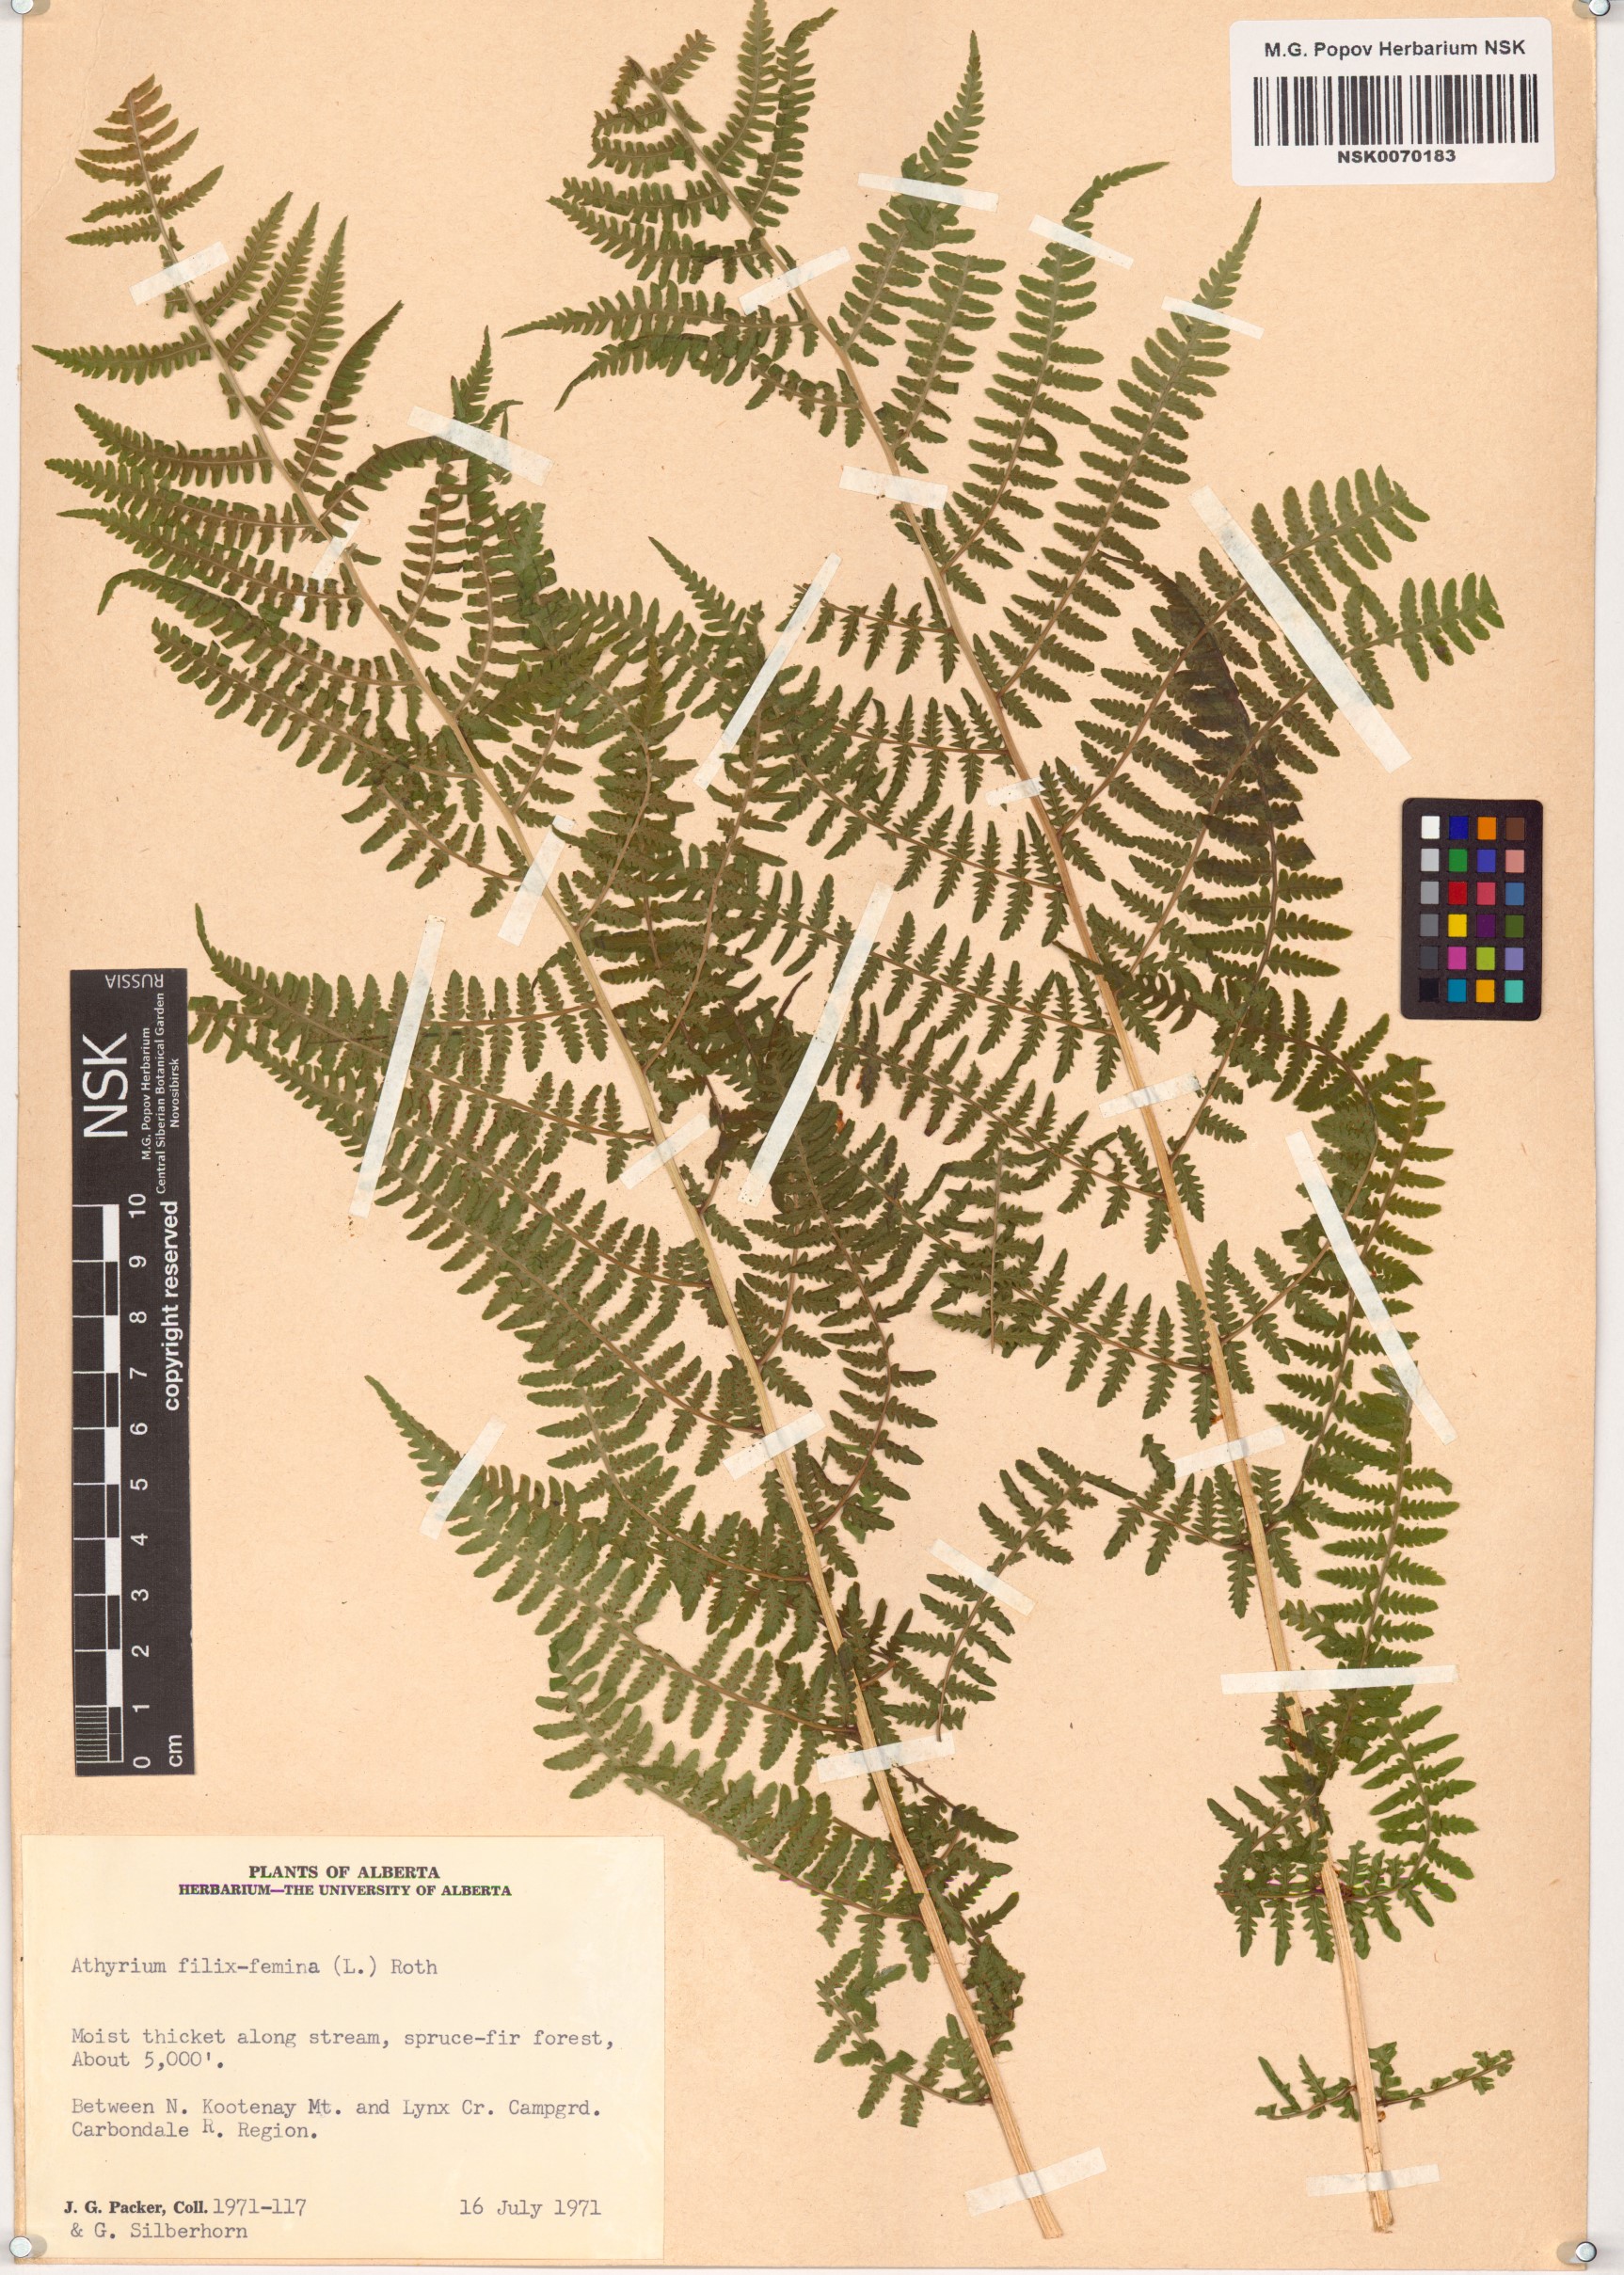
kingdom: Plantae
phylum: Tracheophyta
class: Polypodiopsida
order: Polypodiales
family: Athyriaceae
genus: Athyrium
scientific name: Athyrium filix-femina
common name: Lady fern
